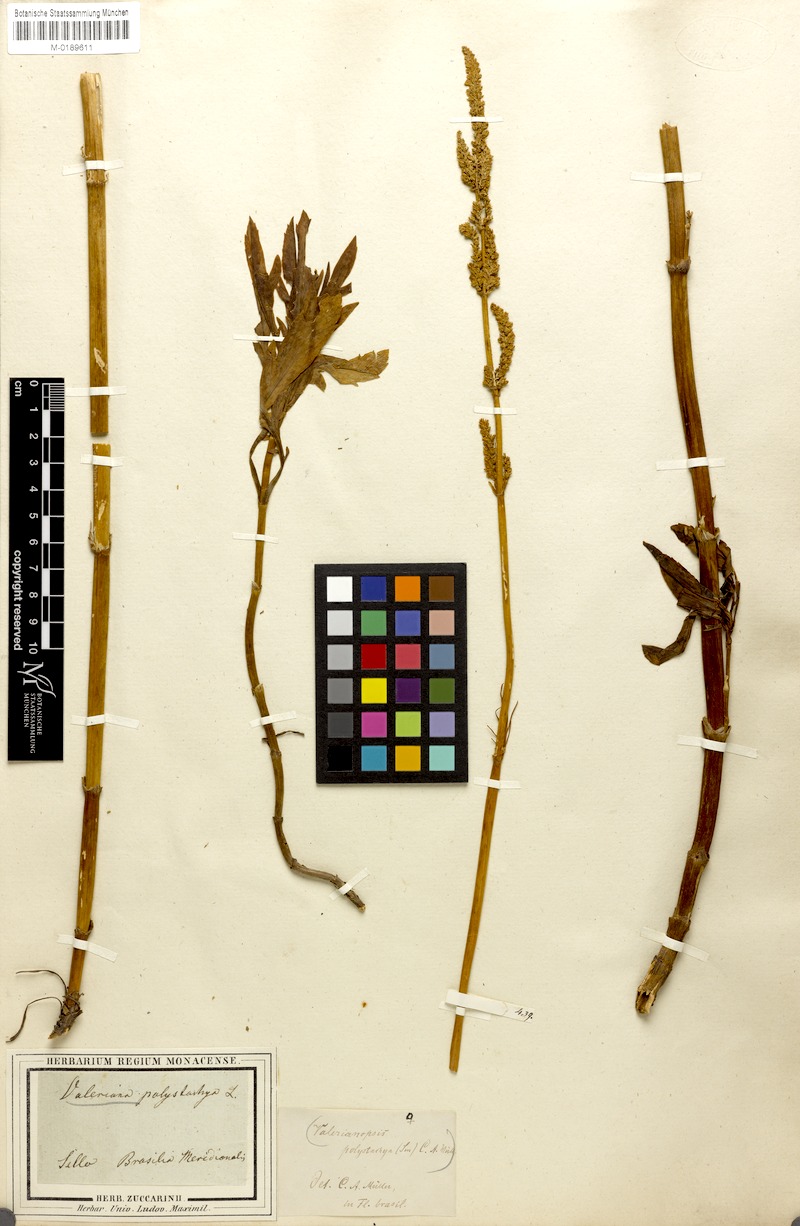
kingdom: Plantae
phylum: Tracheophyta
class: Magnoliopsida
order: Dipsacales
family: Caprifoliaceae
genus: Valeriana
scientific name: Valeriana polystachya
